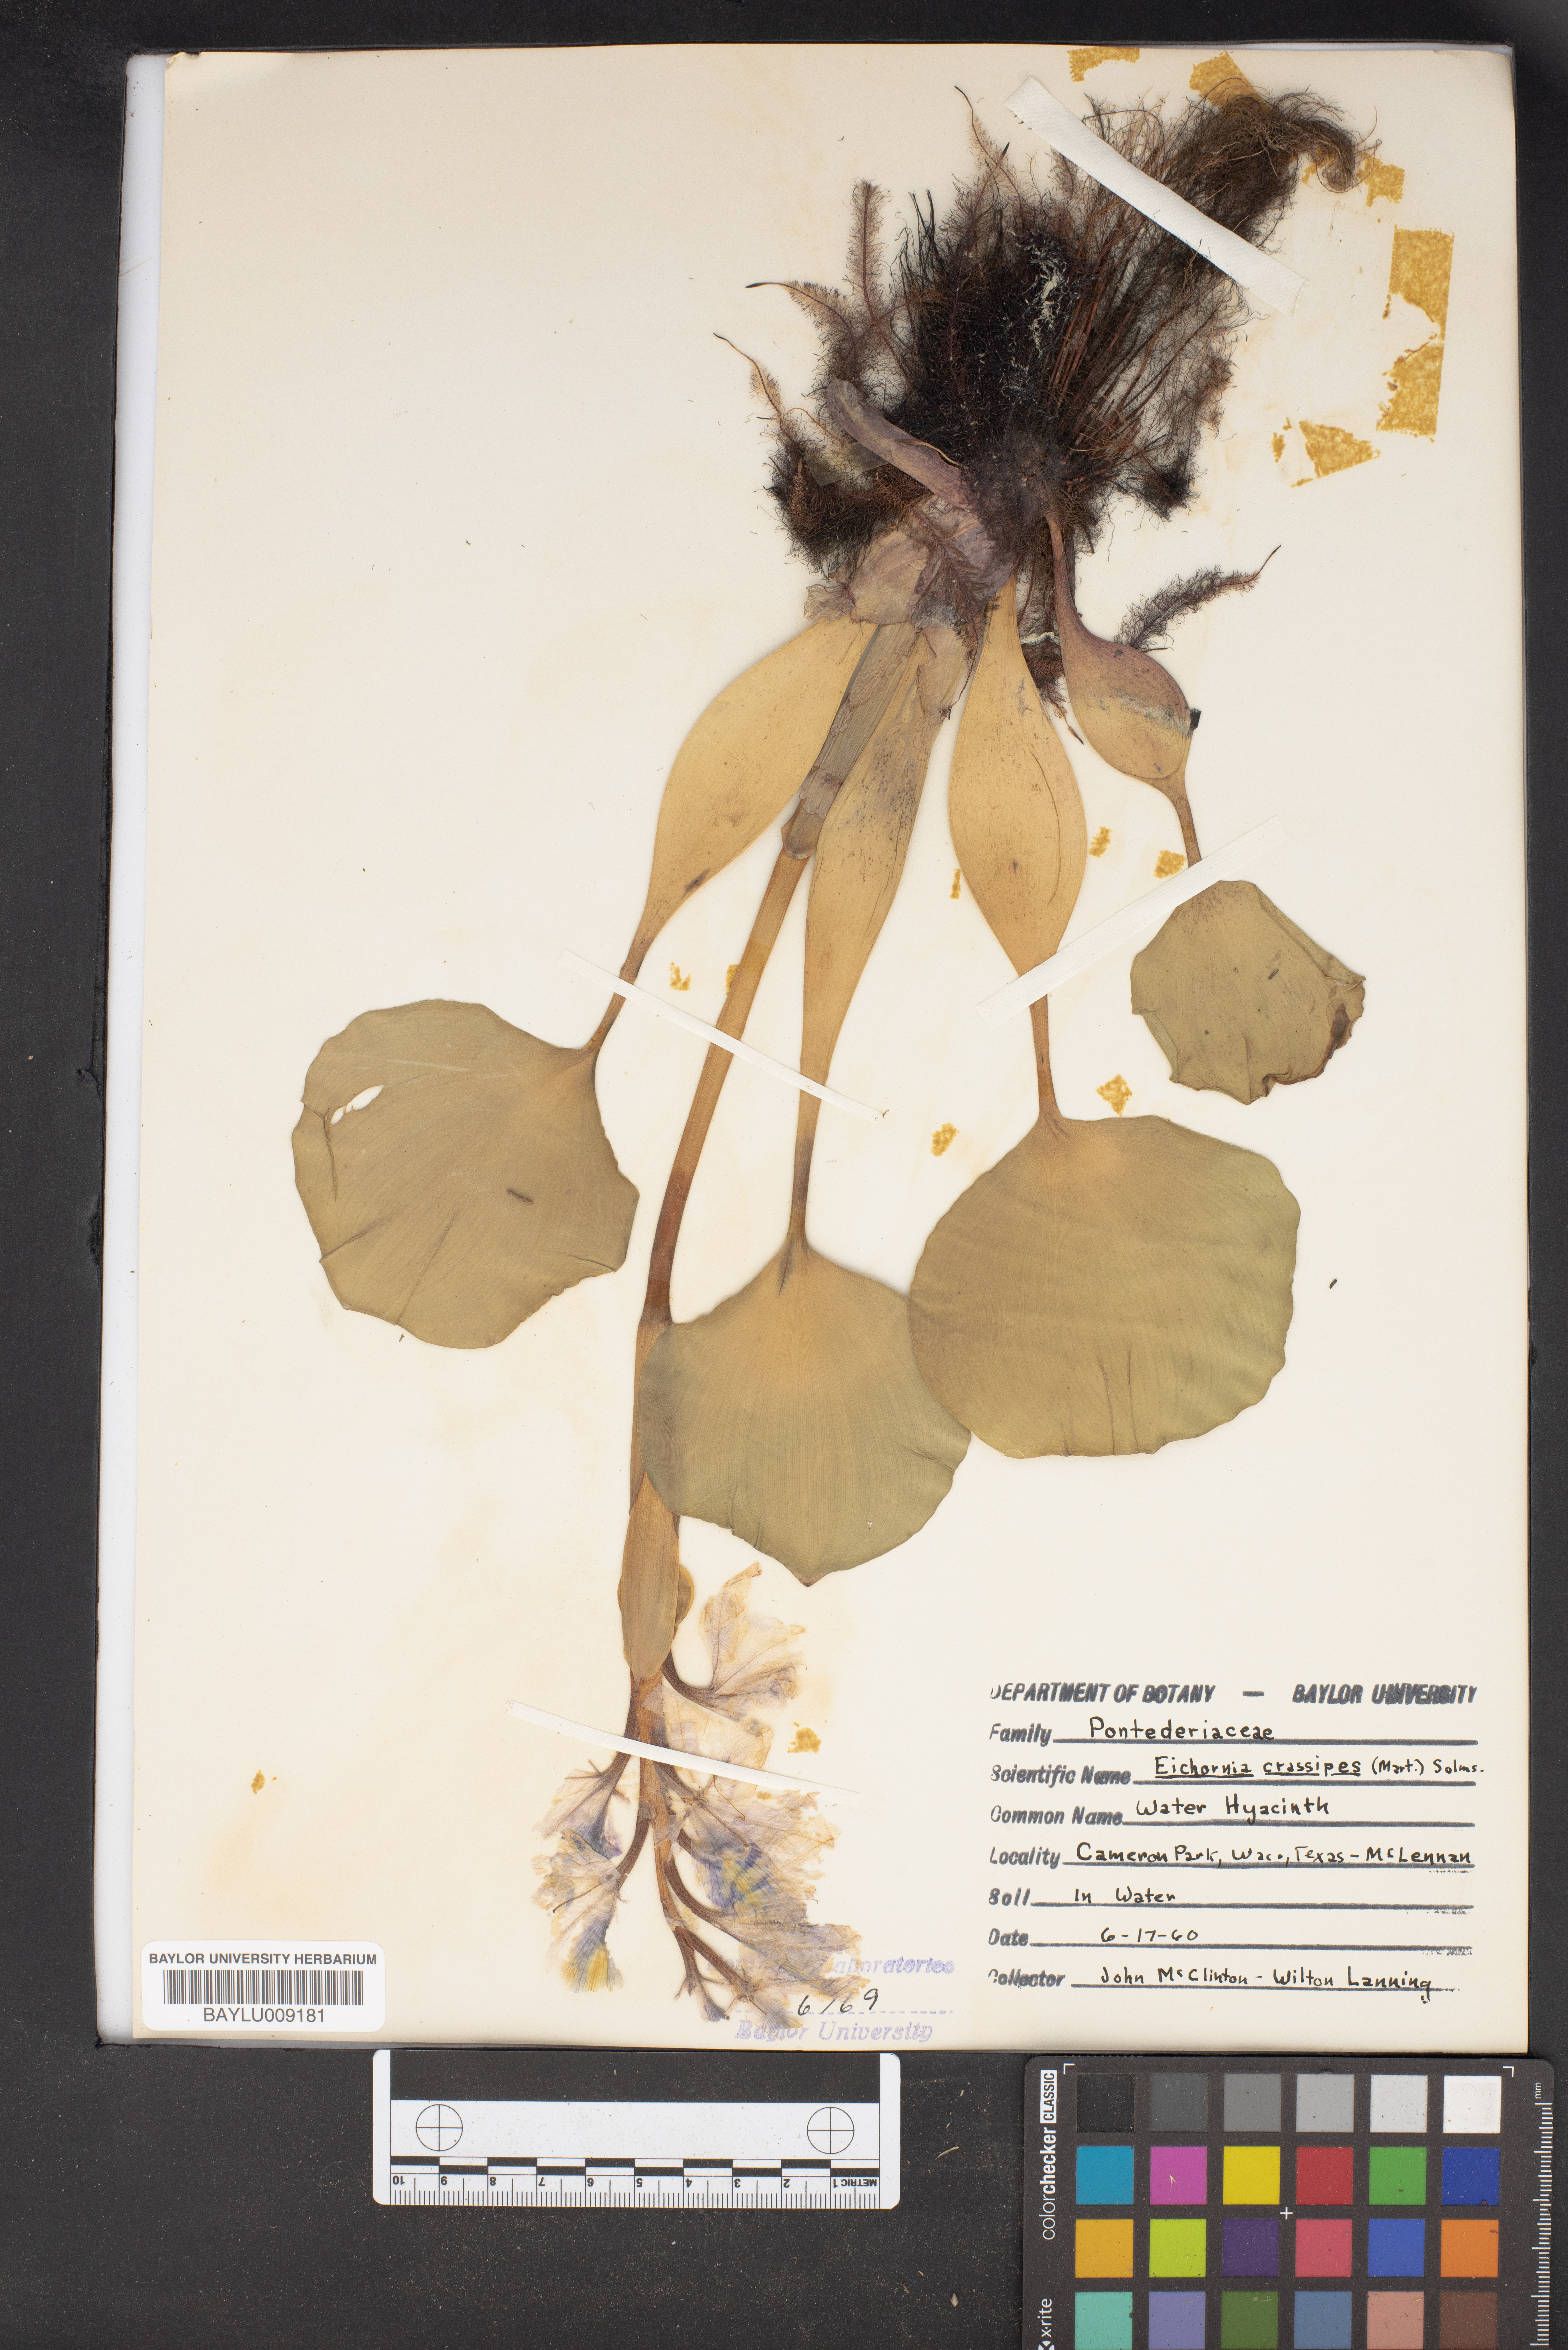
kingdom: Plantae
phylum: Tracheophyta
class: Liliopsida
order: Commelinales
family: Pontederiaceae
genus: Pontederia
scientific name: Pontederia crassipes
